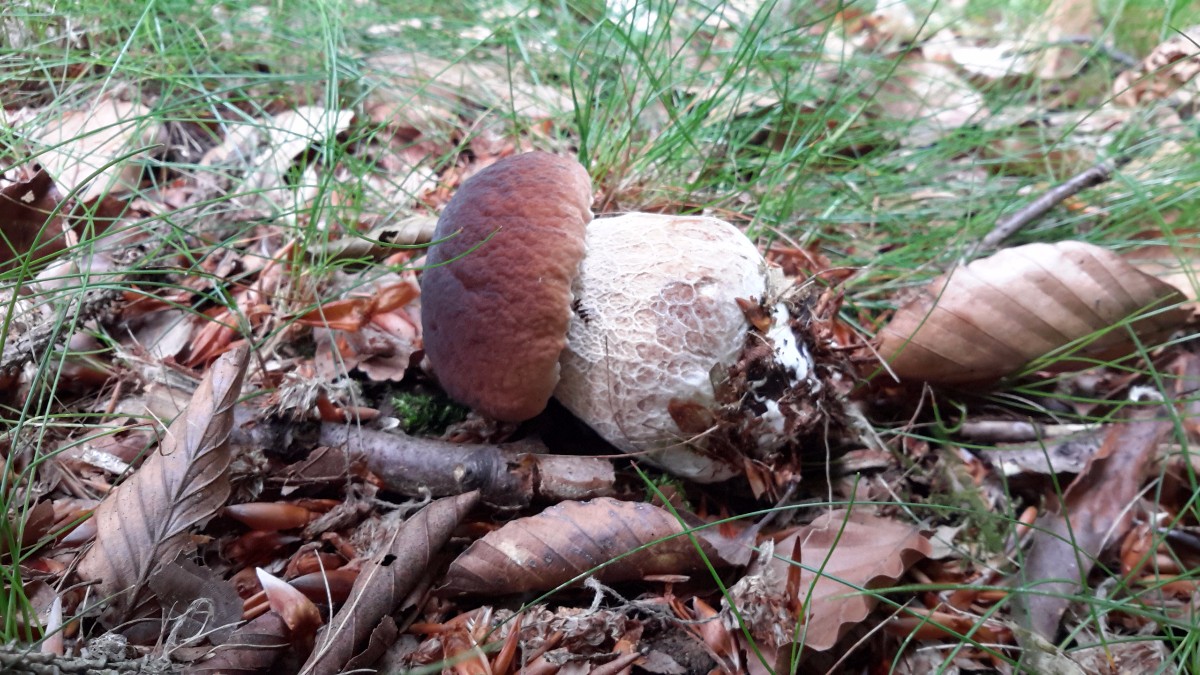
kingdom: Fungi
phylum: Basidiomycota
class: Agaricomycetes
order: Boletales
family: Boletaceae
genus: Boletus
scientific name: Boletus edulis
